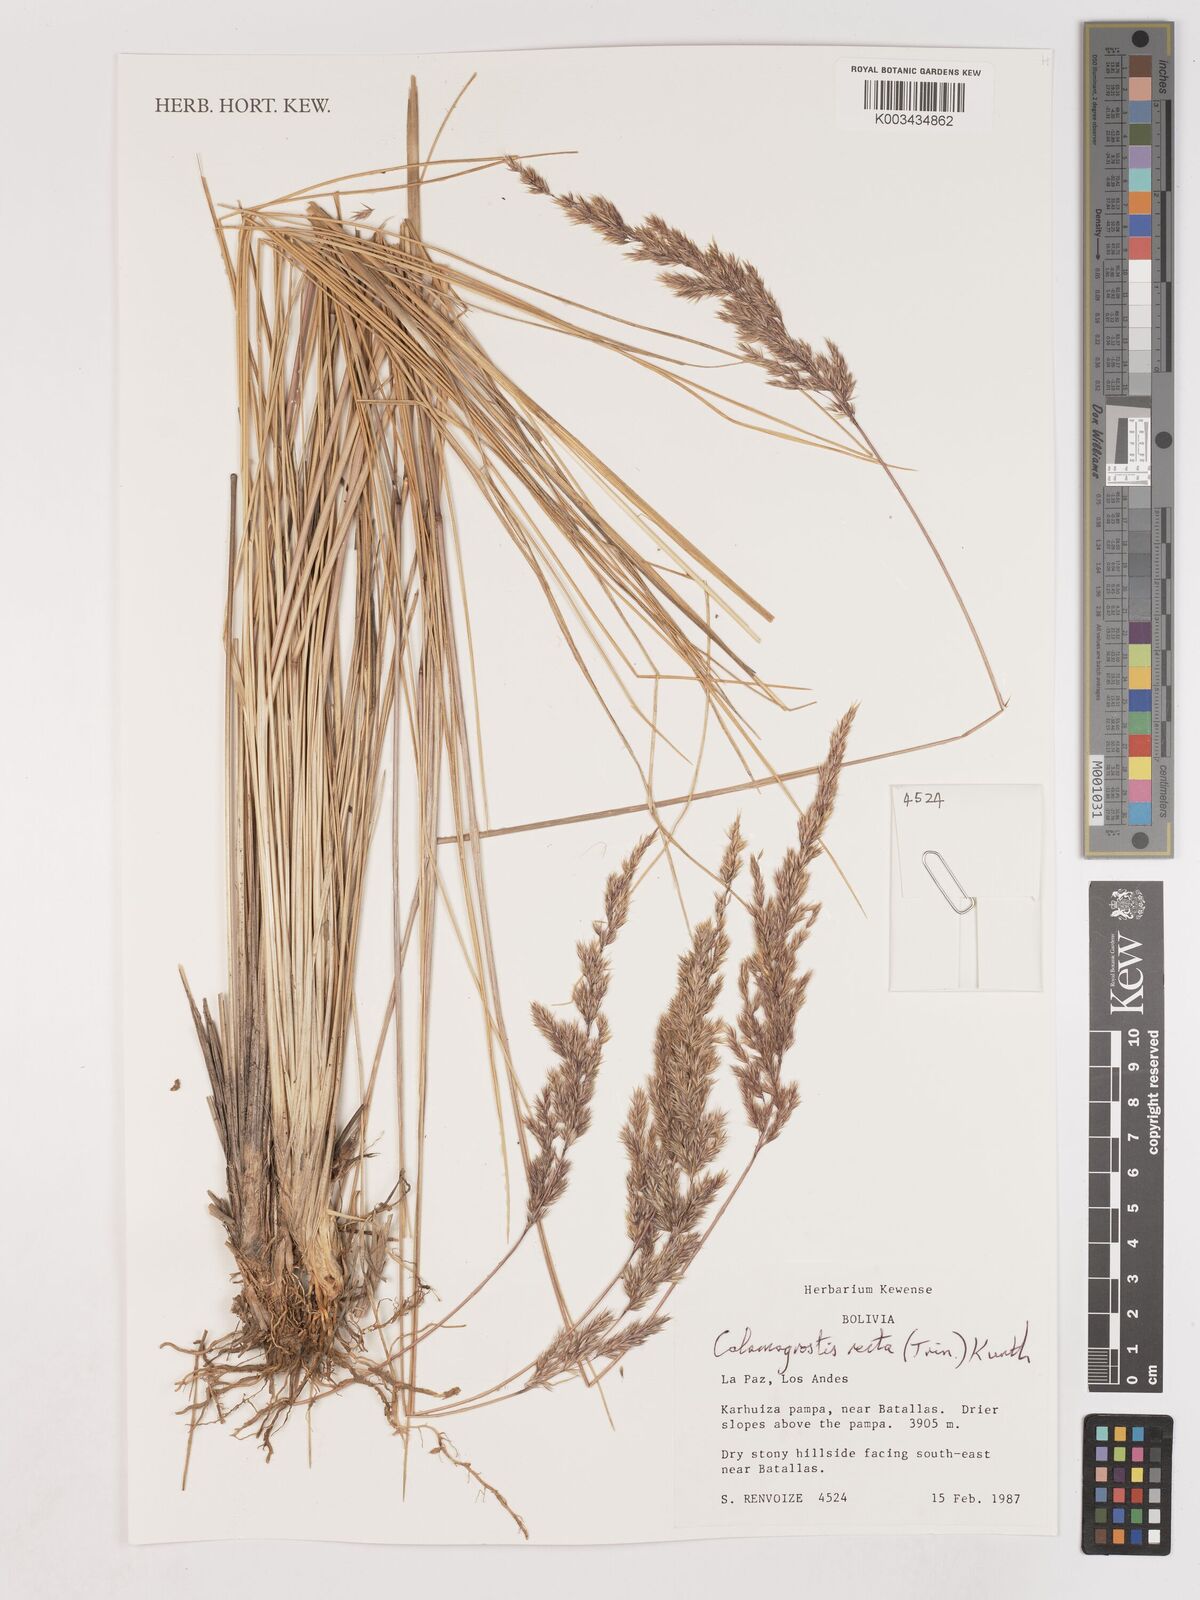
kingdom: Plantae
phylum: Tracheophyta
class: Liliopsida
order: Poales
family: Poaceae
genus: Cinnagrostis
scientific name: Cinnagrostis recta
